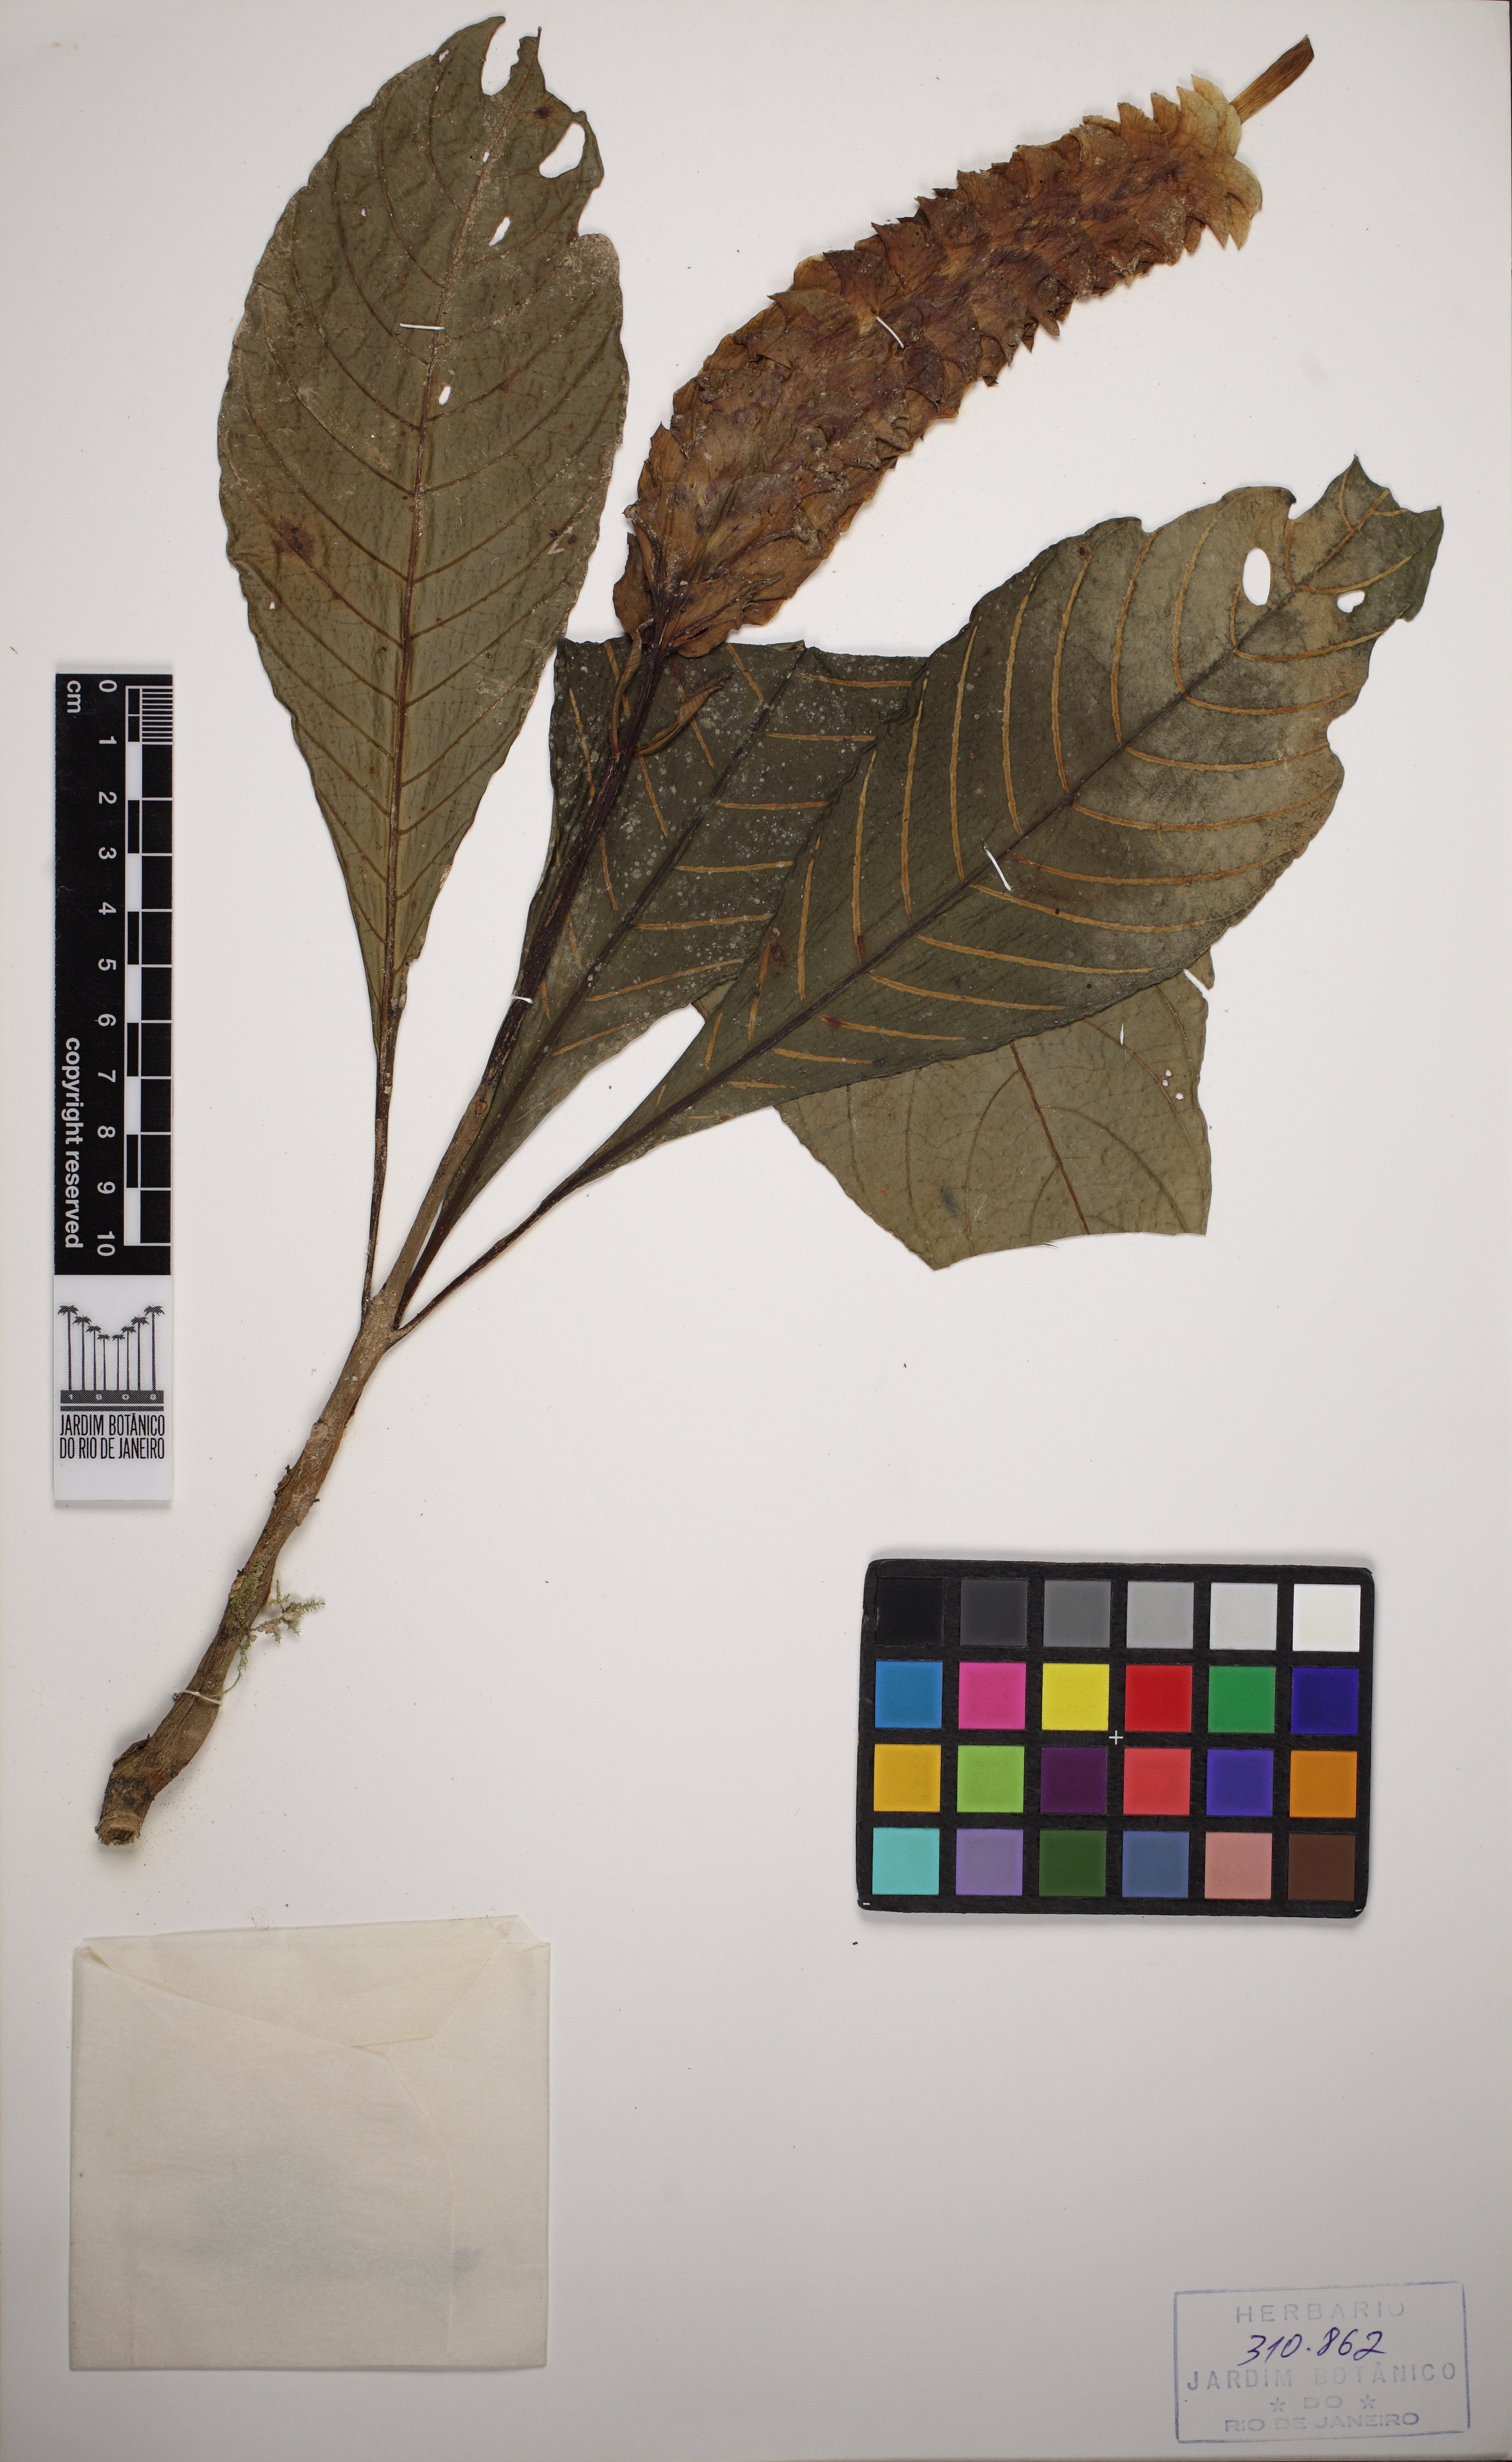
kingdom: Plantae
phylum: Tracheophyta
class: Magnoliopsida
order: Lamiales
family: Acanthaceae
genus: Aphelandra
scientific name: Aphelandra
